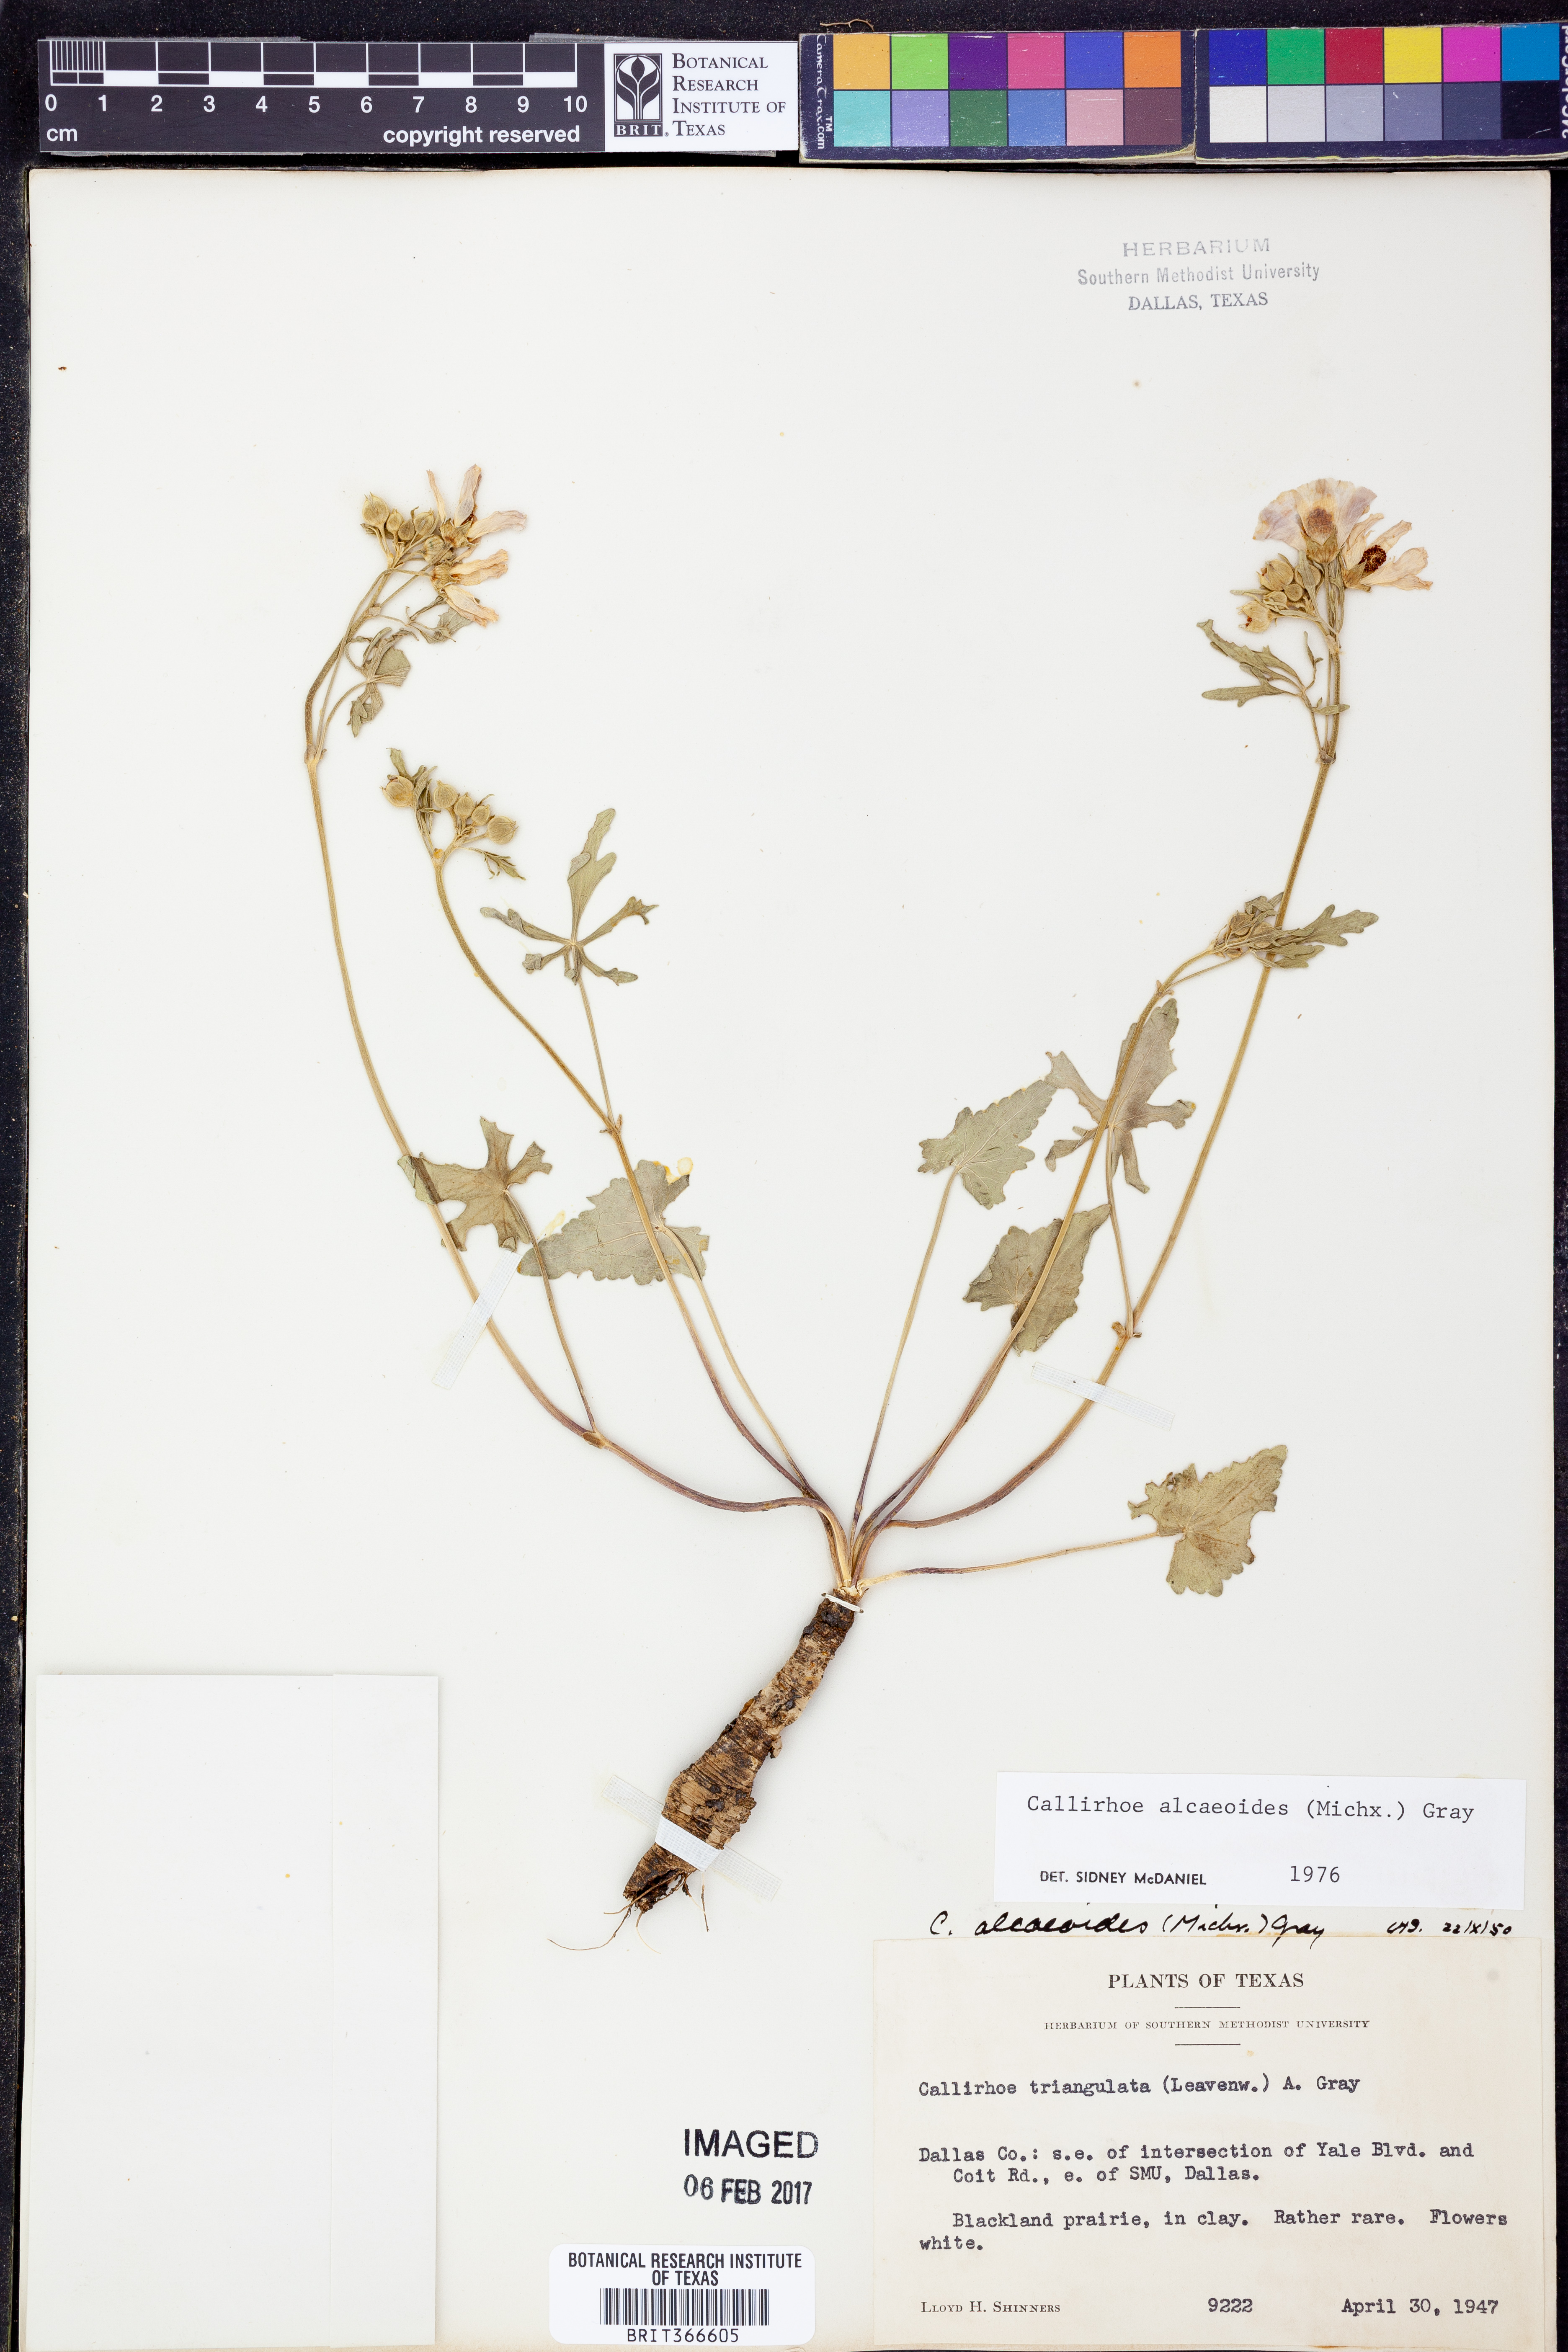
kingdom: Plantae
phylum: Tracheophyta
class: Magnoliopsida
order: Malvales
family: Malvaceae
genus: Callirhoe
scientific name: Callirhoe alcaeoides
